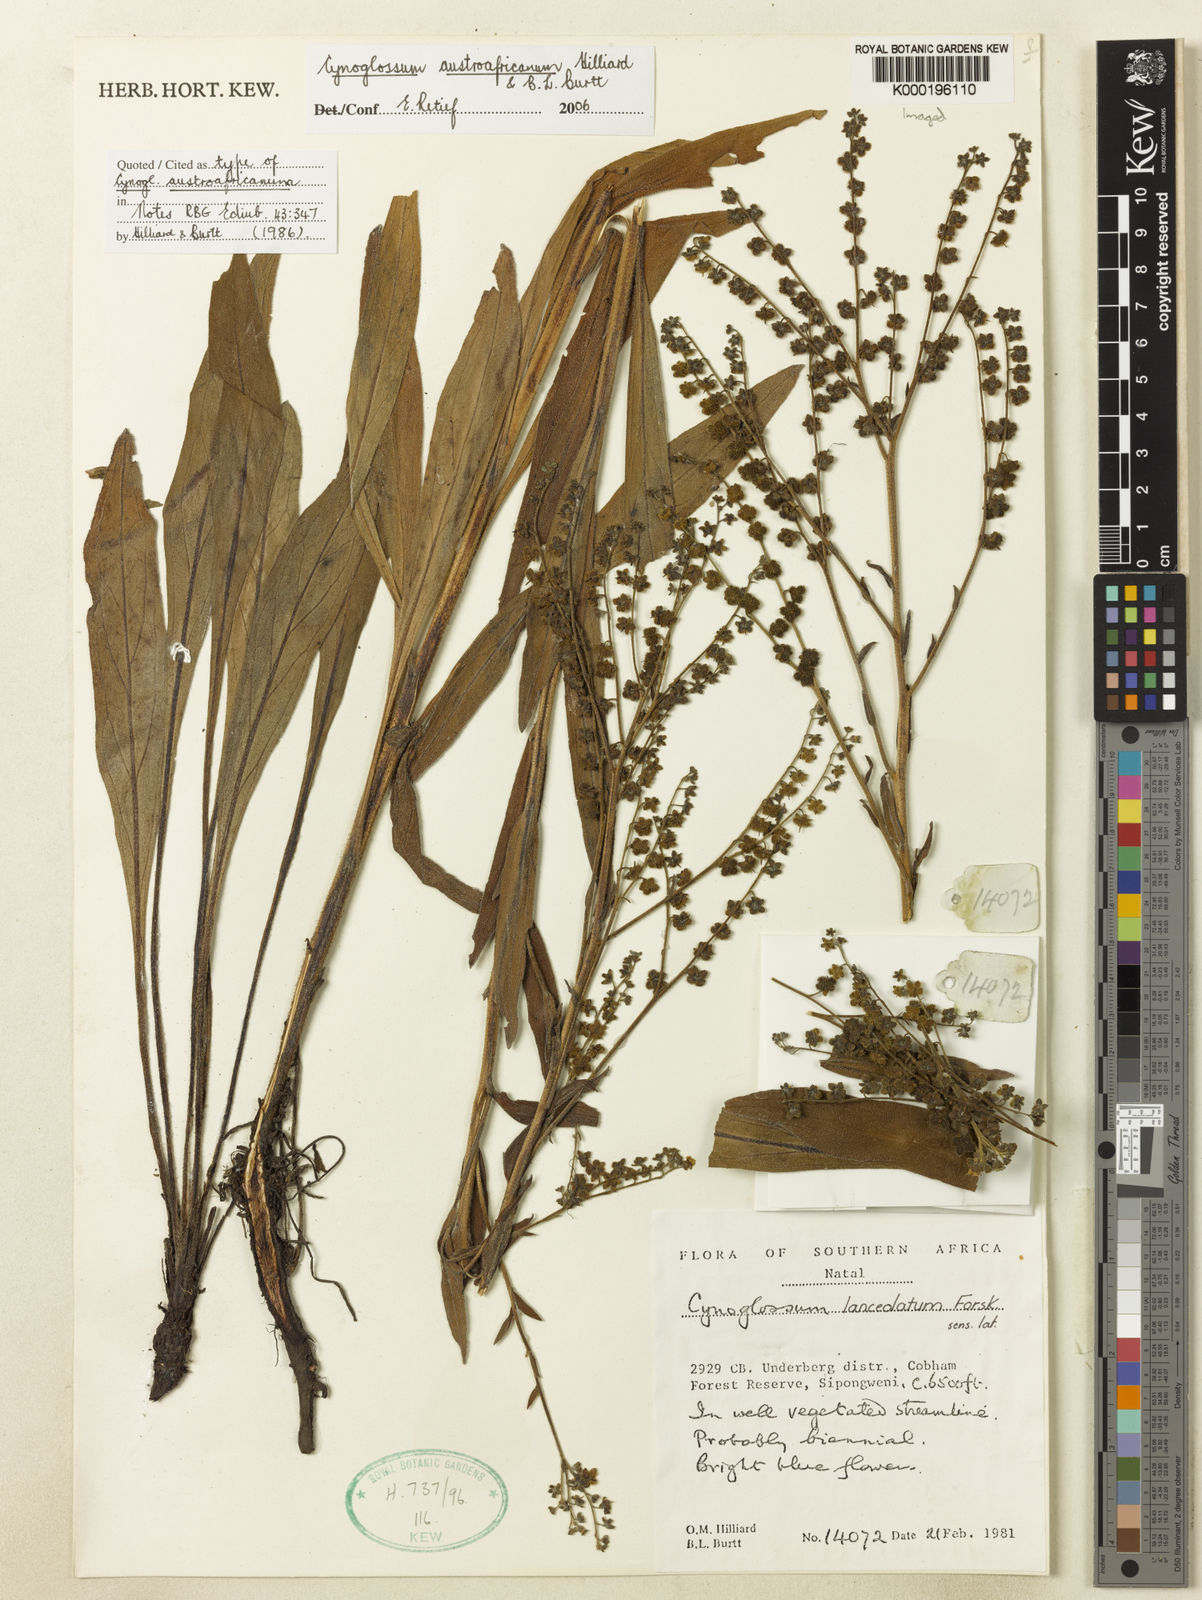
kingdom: Plantae
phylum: Tracheophyta
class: Magnoliopsida
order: Boraginales
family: Boraginaceae
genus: Cynoglossum
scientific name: Cynoglossum austroafricanum
